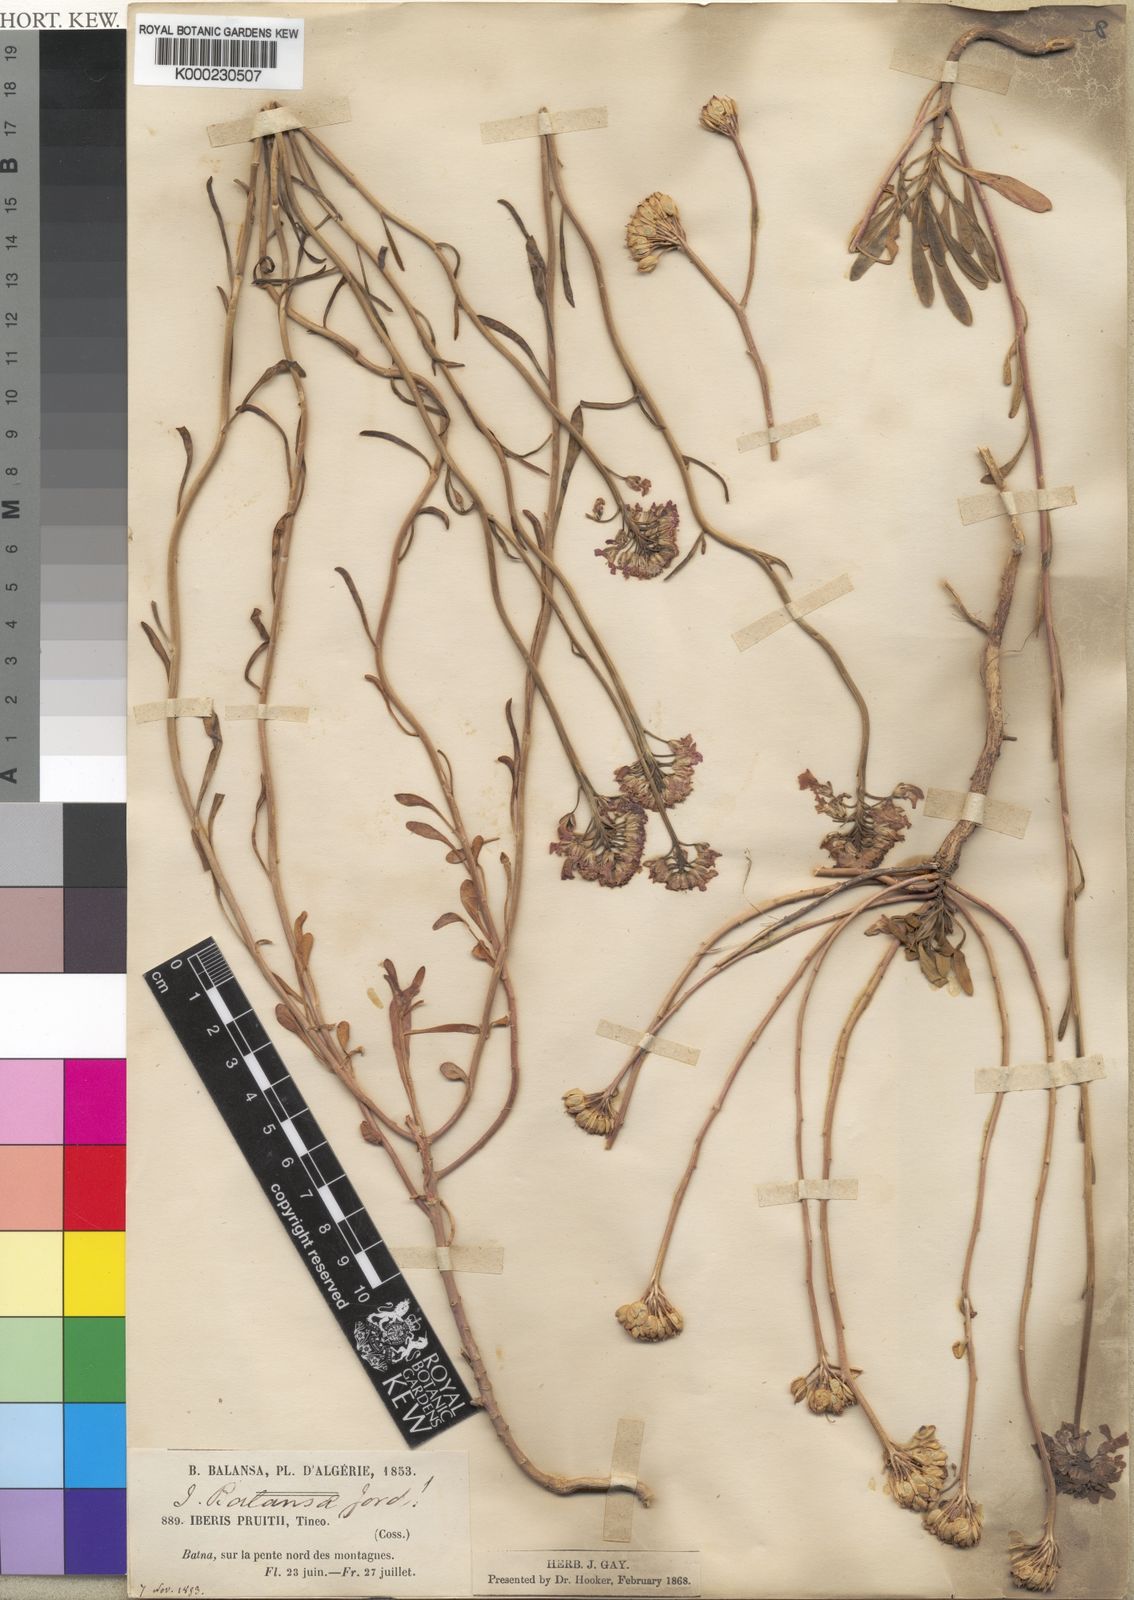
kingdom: Plantae
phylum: Tracheophyta
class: Magnoliopsida
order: Brassicales
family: Brassicaceae
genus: Iberis
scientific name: Iberis carnosa
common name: Pruit's candytuft
